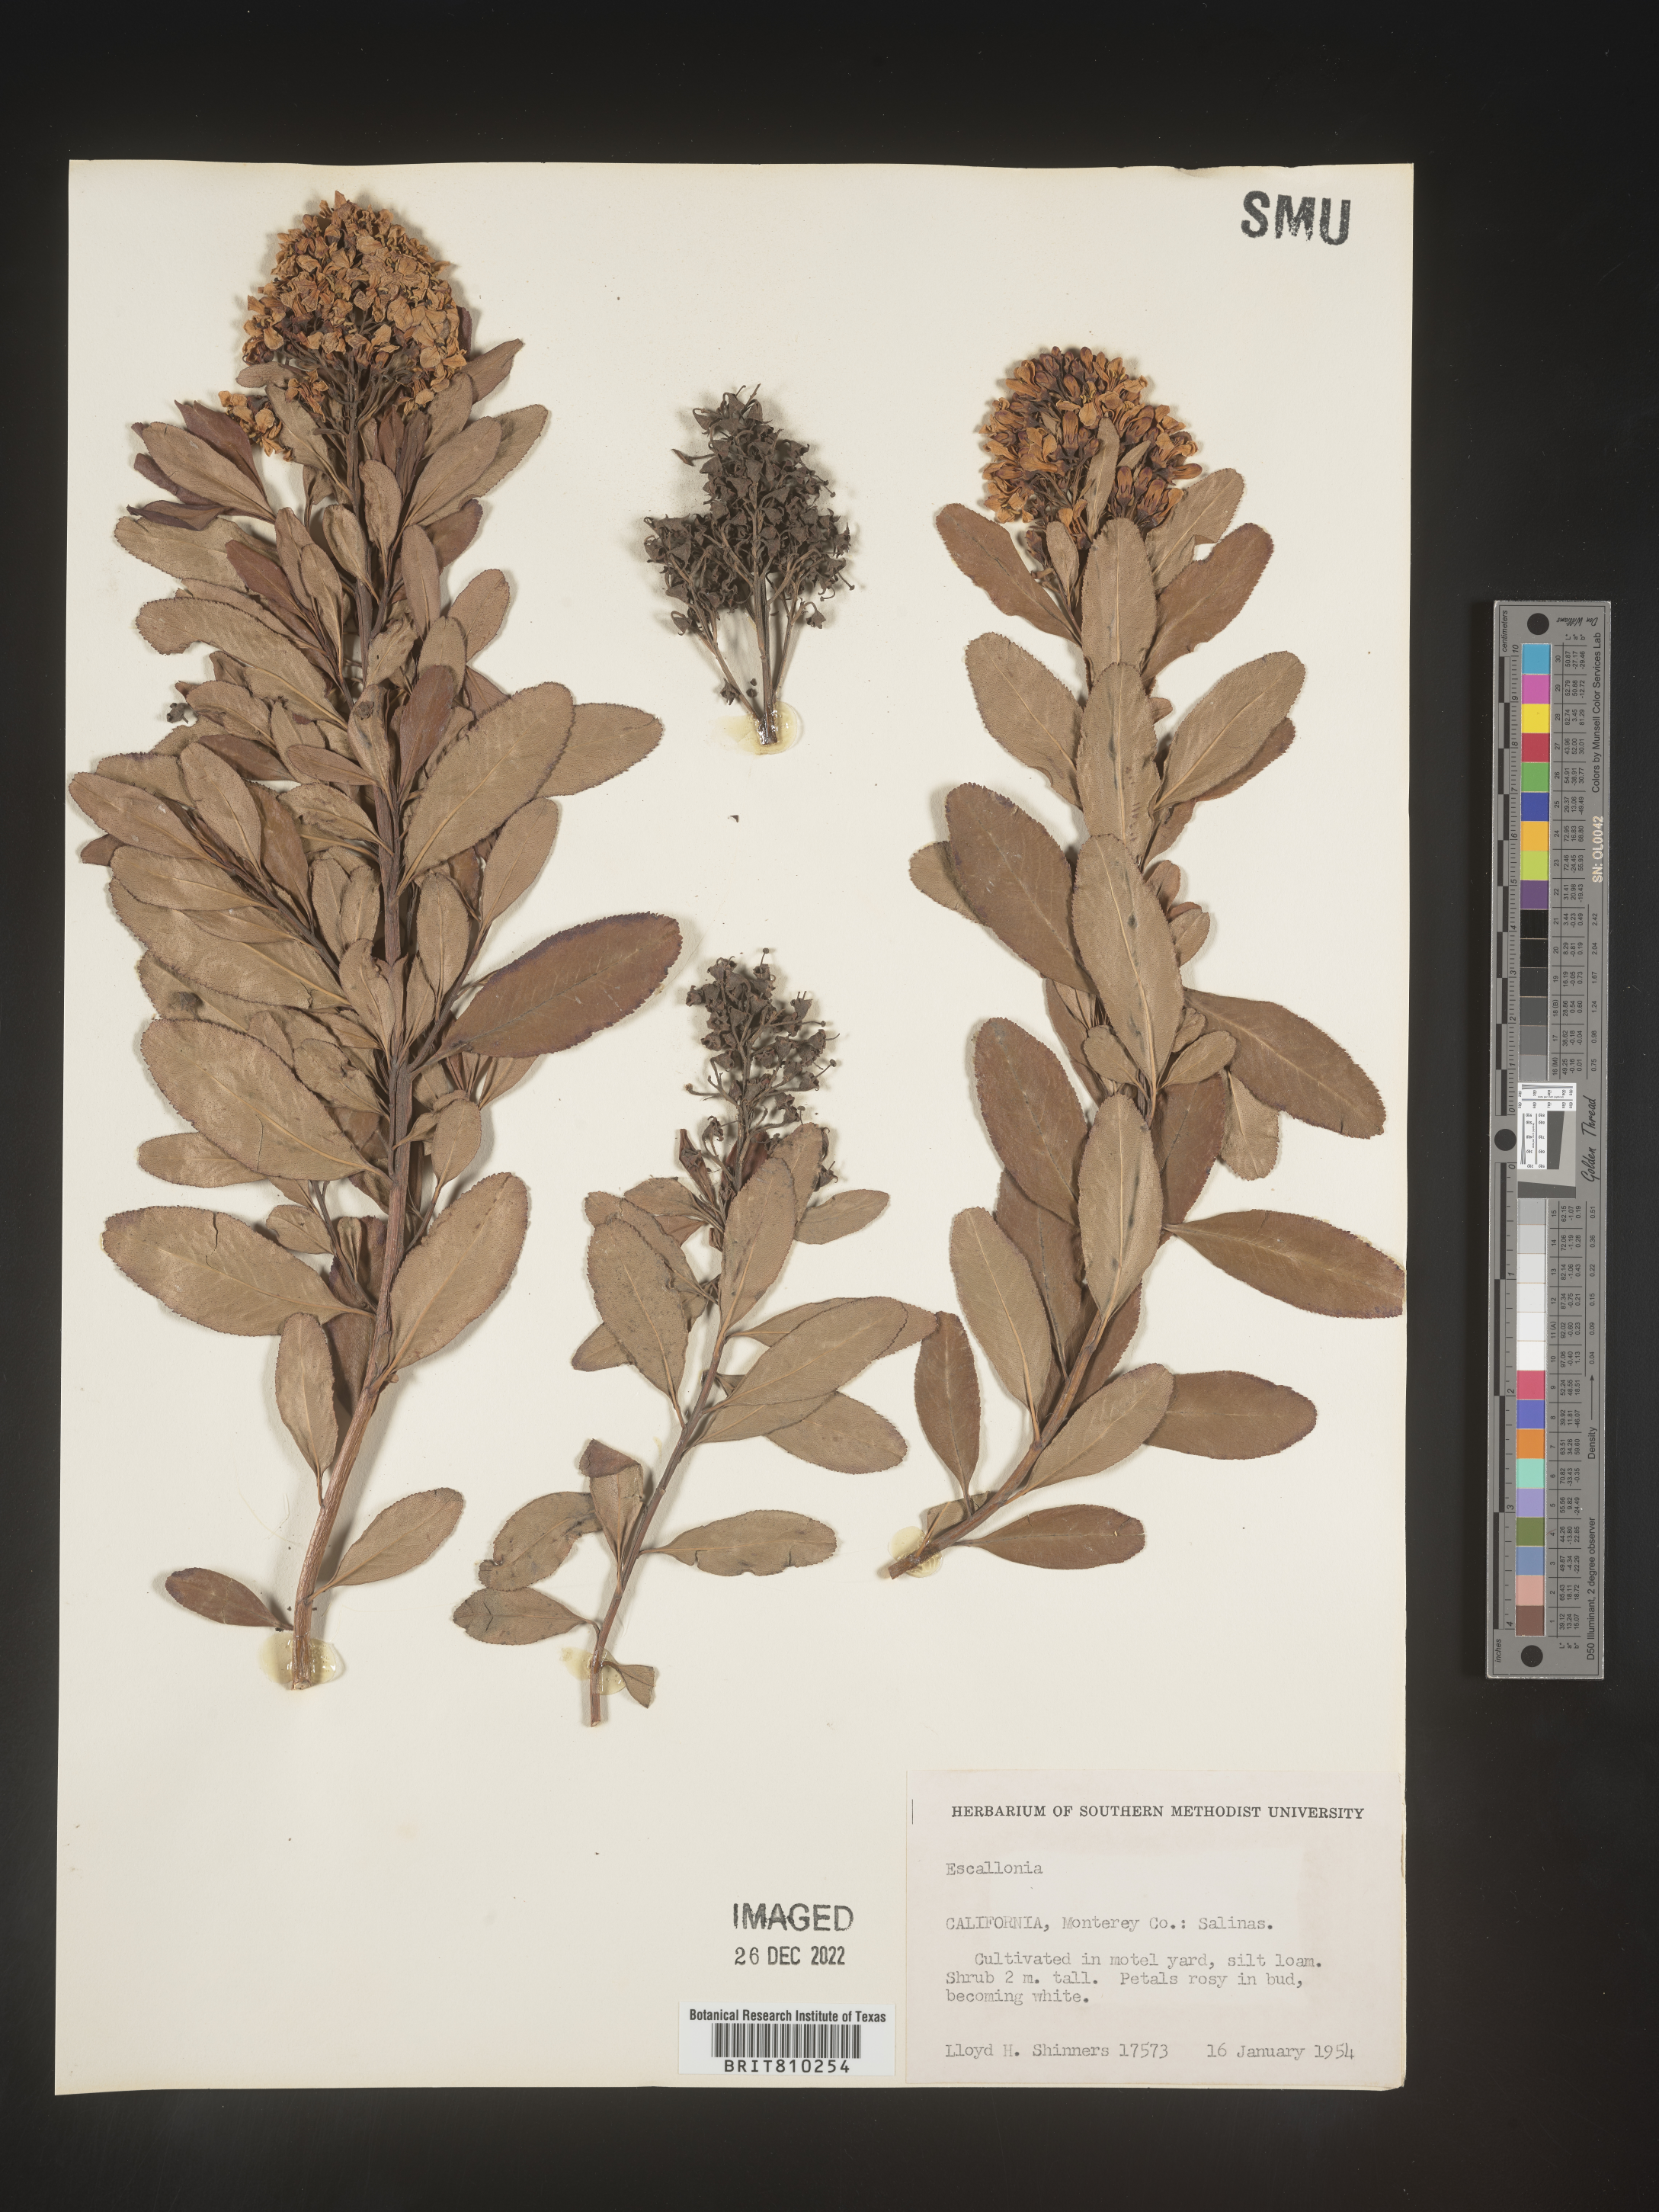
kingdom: Plantae
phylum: Tracheophyta
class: Magnoliopsida
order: Escalloniales
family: Escalloniaceae
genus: Escallonia
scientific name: Escallonia
